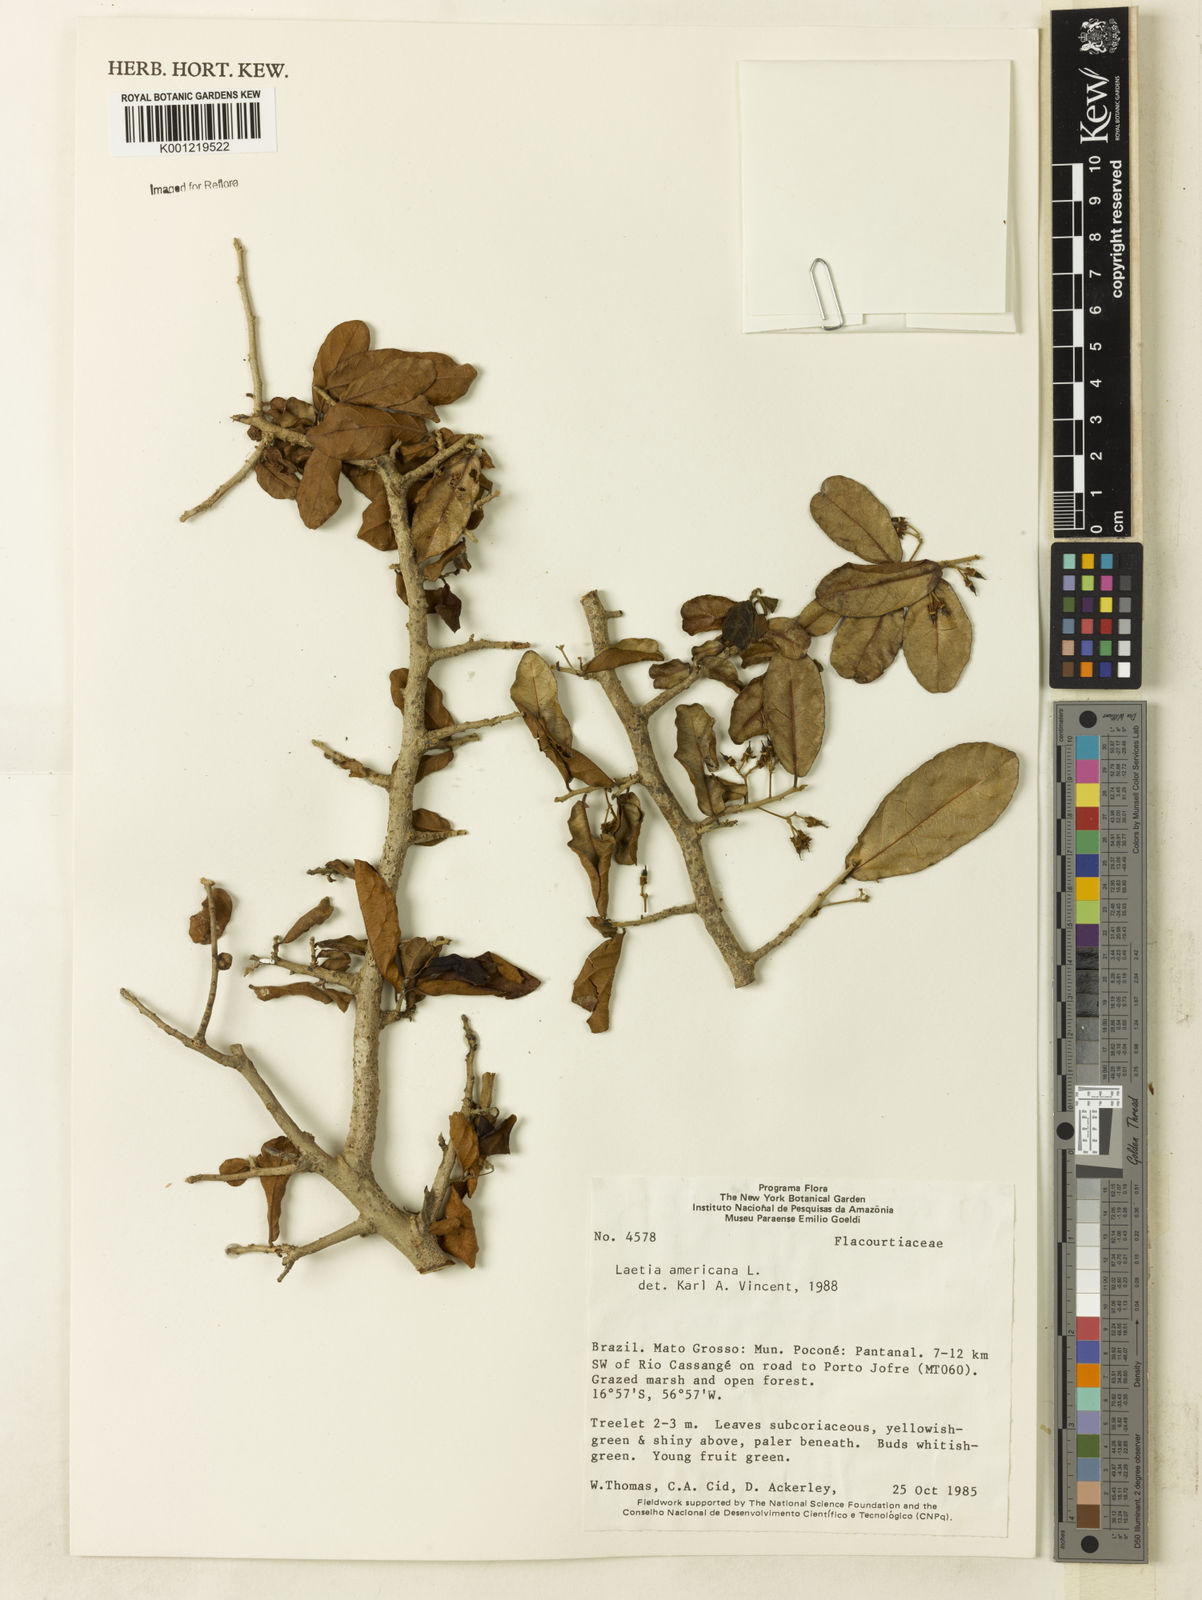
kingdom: Plantae
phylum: Tracheophyta
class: Magnoliopsida
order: Malpighiales
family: Salicaceae
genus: Casearia
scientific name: Casearia americana
